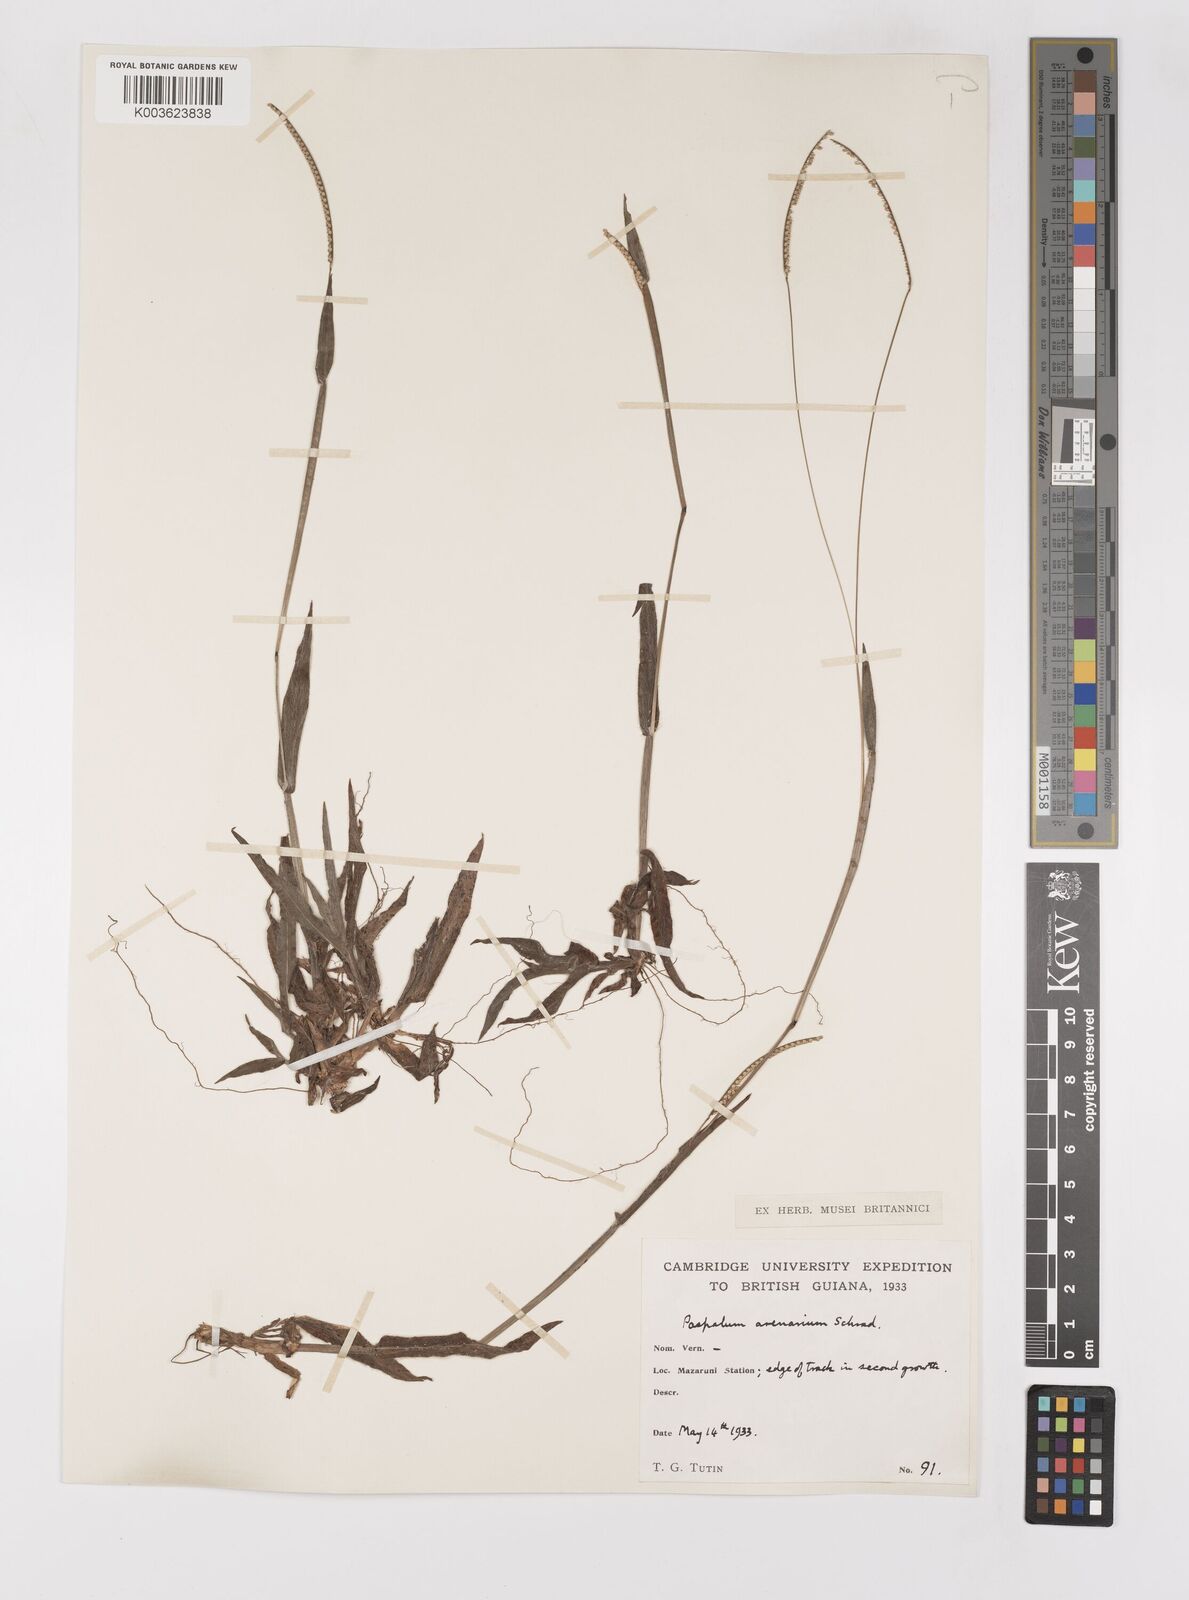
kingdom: Plantae
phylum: Tracheophyta
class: Liliopsida
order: Poales
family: Poaceae
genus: Paspalum
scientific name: Paspalum arenarium
